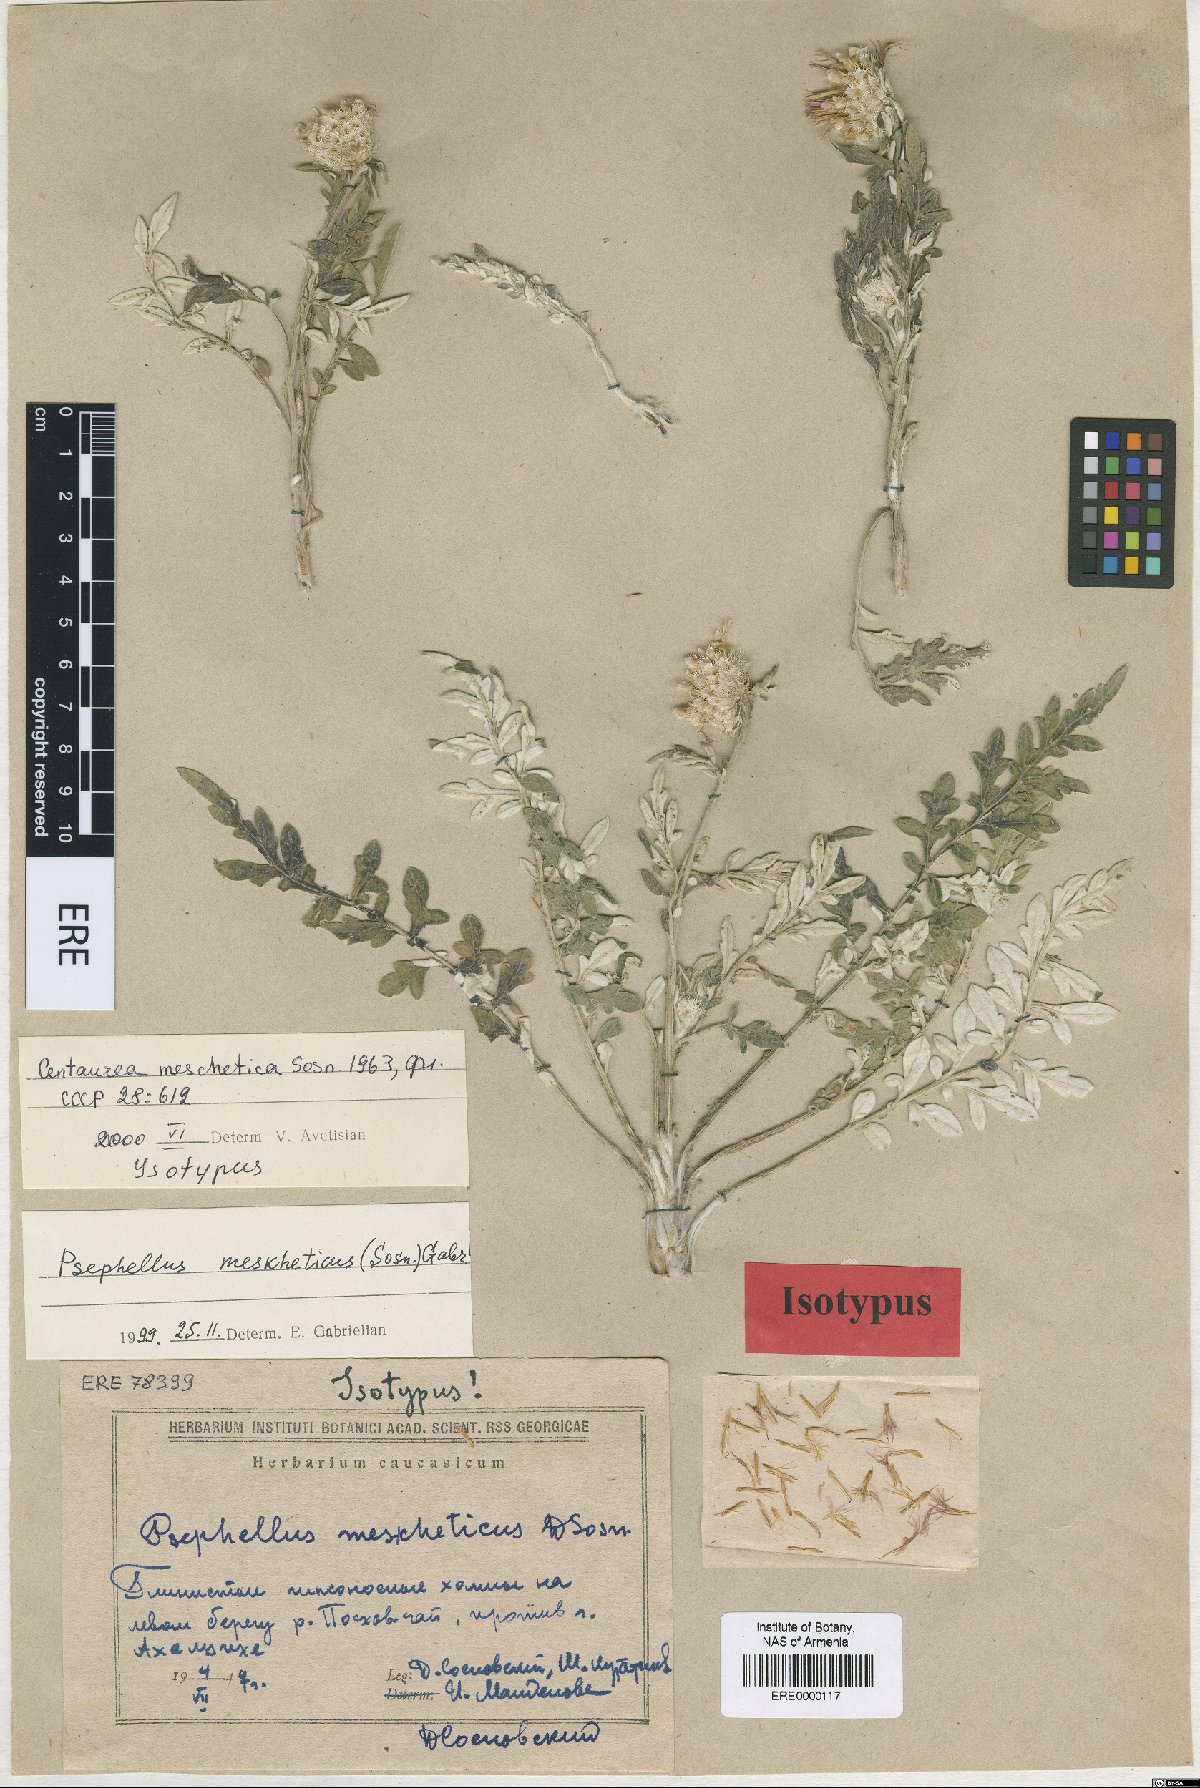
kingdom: Plantae
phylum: Tracheophyta
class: Magnoliopsida
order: Asterales
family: Asteraceae
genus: Psephellus
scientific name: Psephellus meskheticus
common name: Meskhetian psephellus
